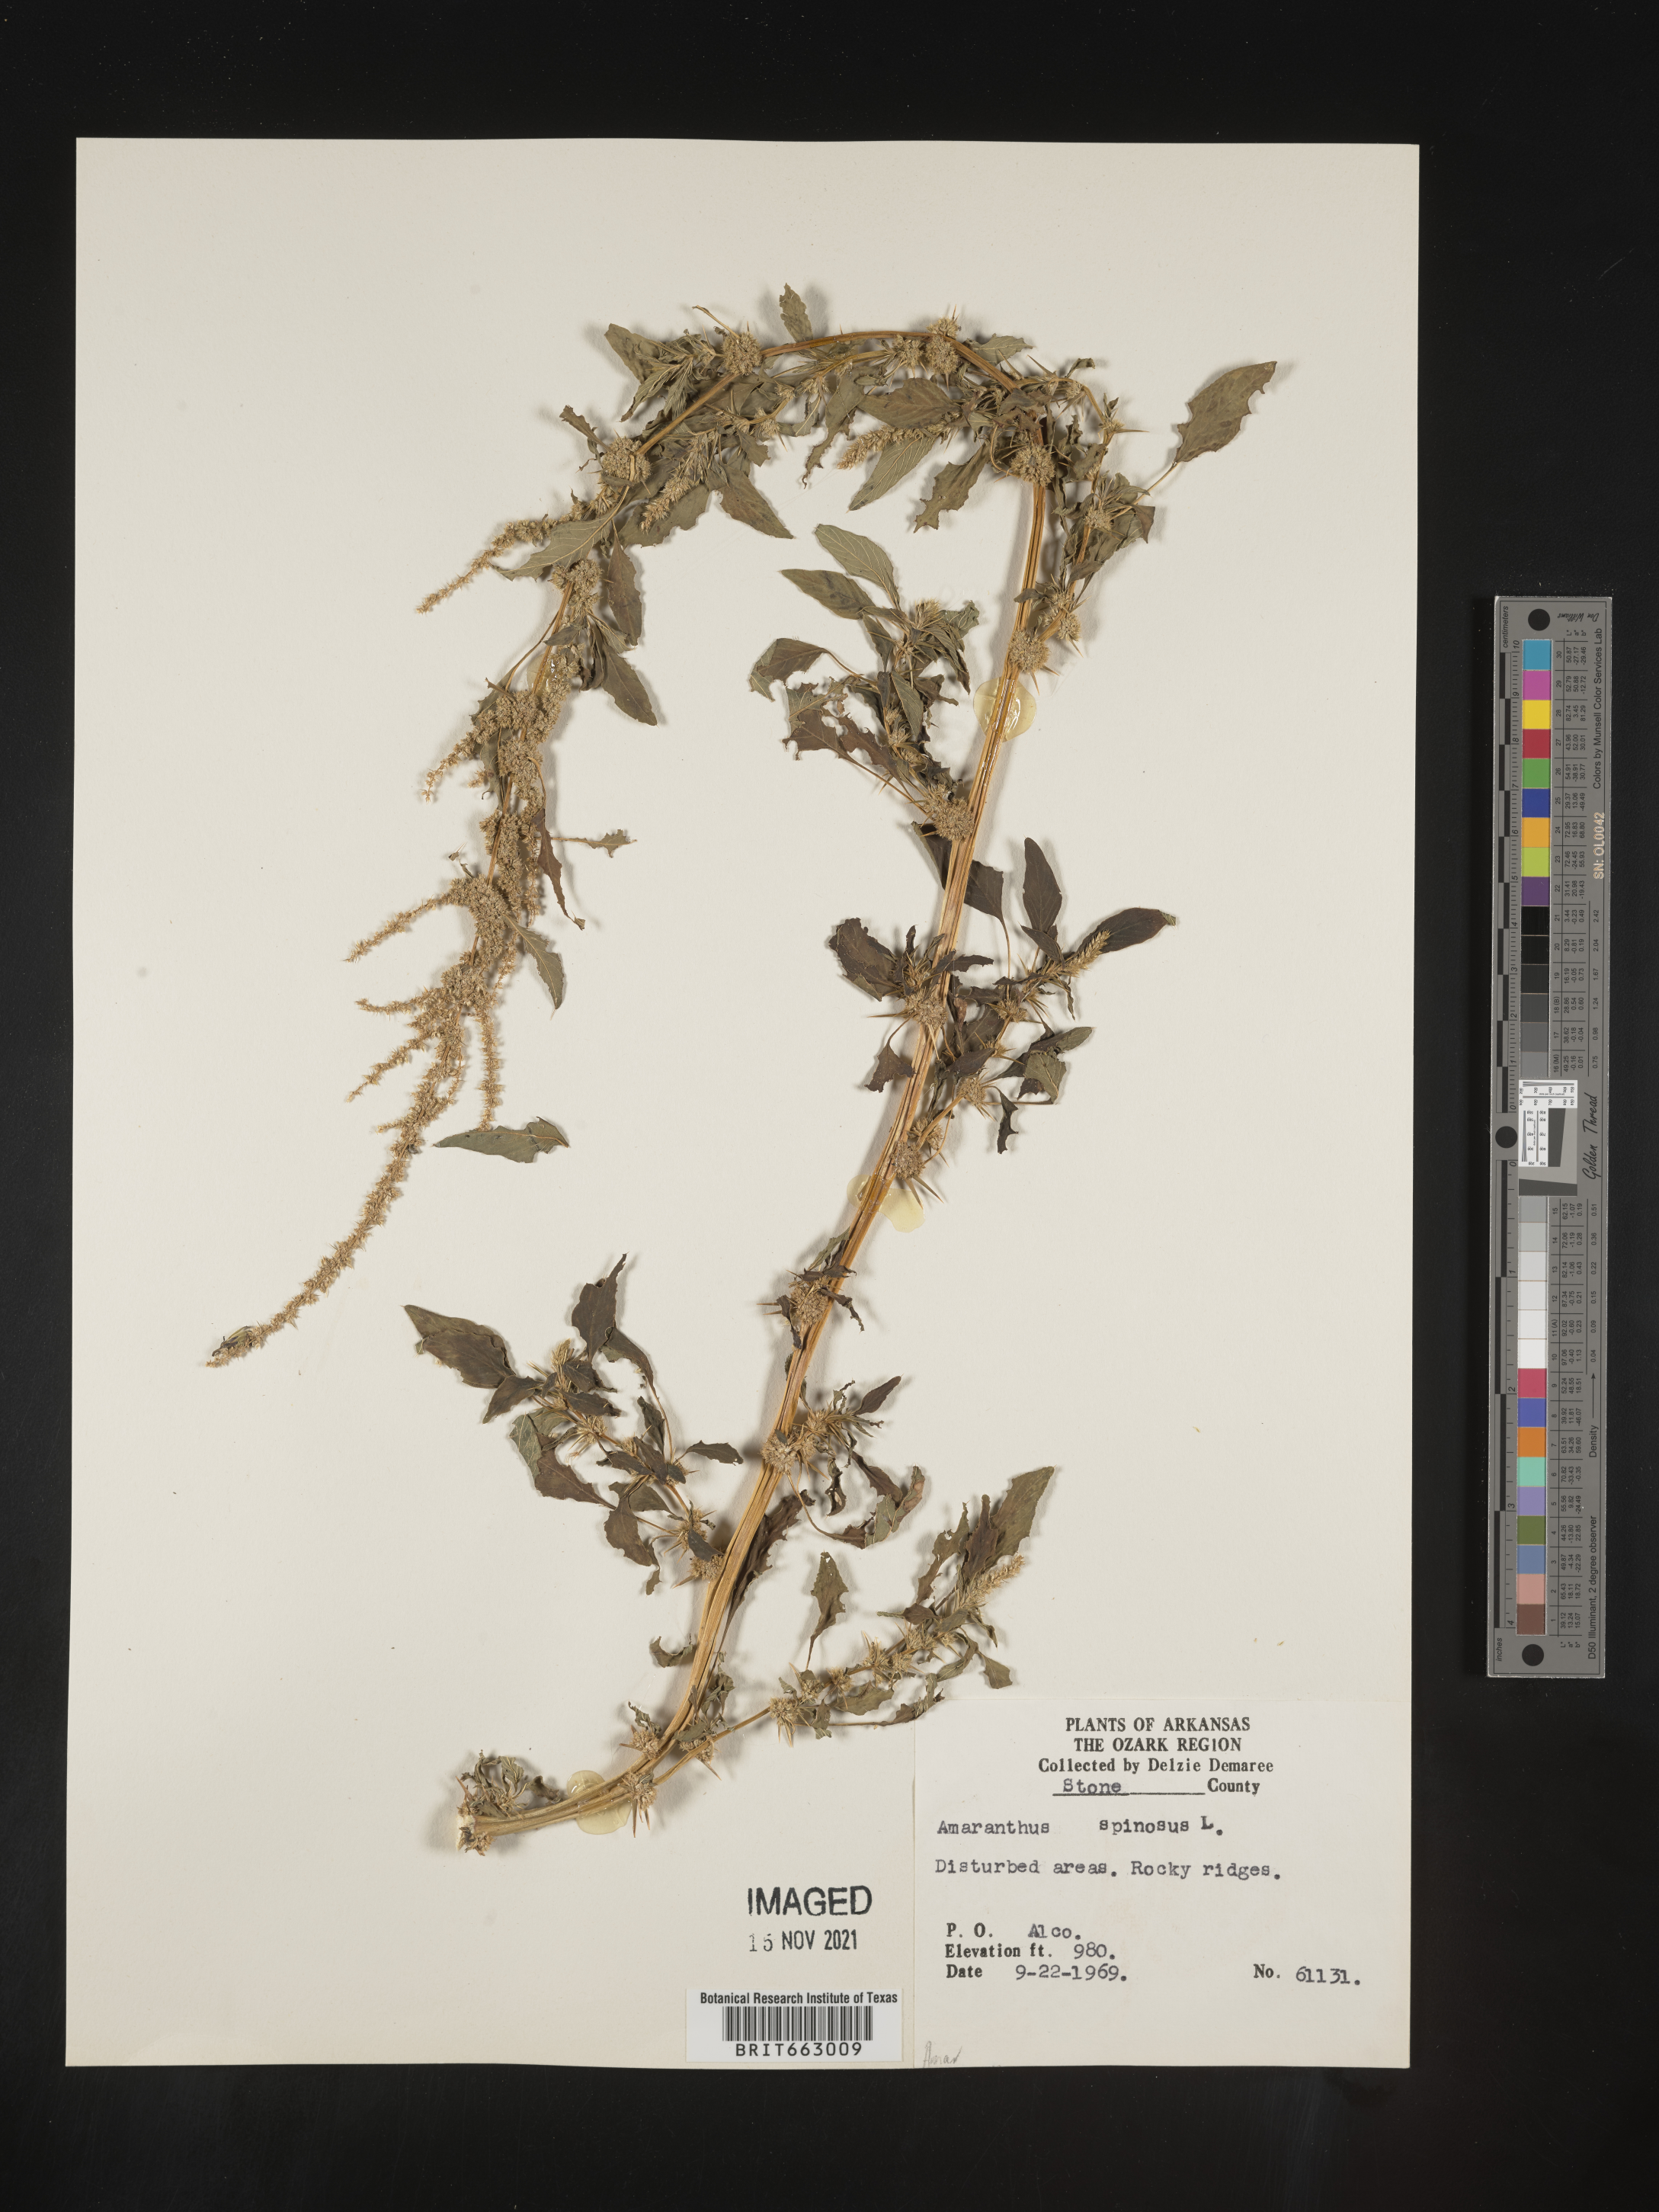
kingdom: Plantae
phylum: Tracheophyta
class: Magnoliopsida
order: Caryophyllales
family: Amaranthaceae
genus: Amaranthus
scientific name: Amaranthus spinosus
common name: Spiny amaranth
